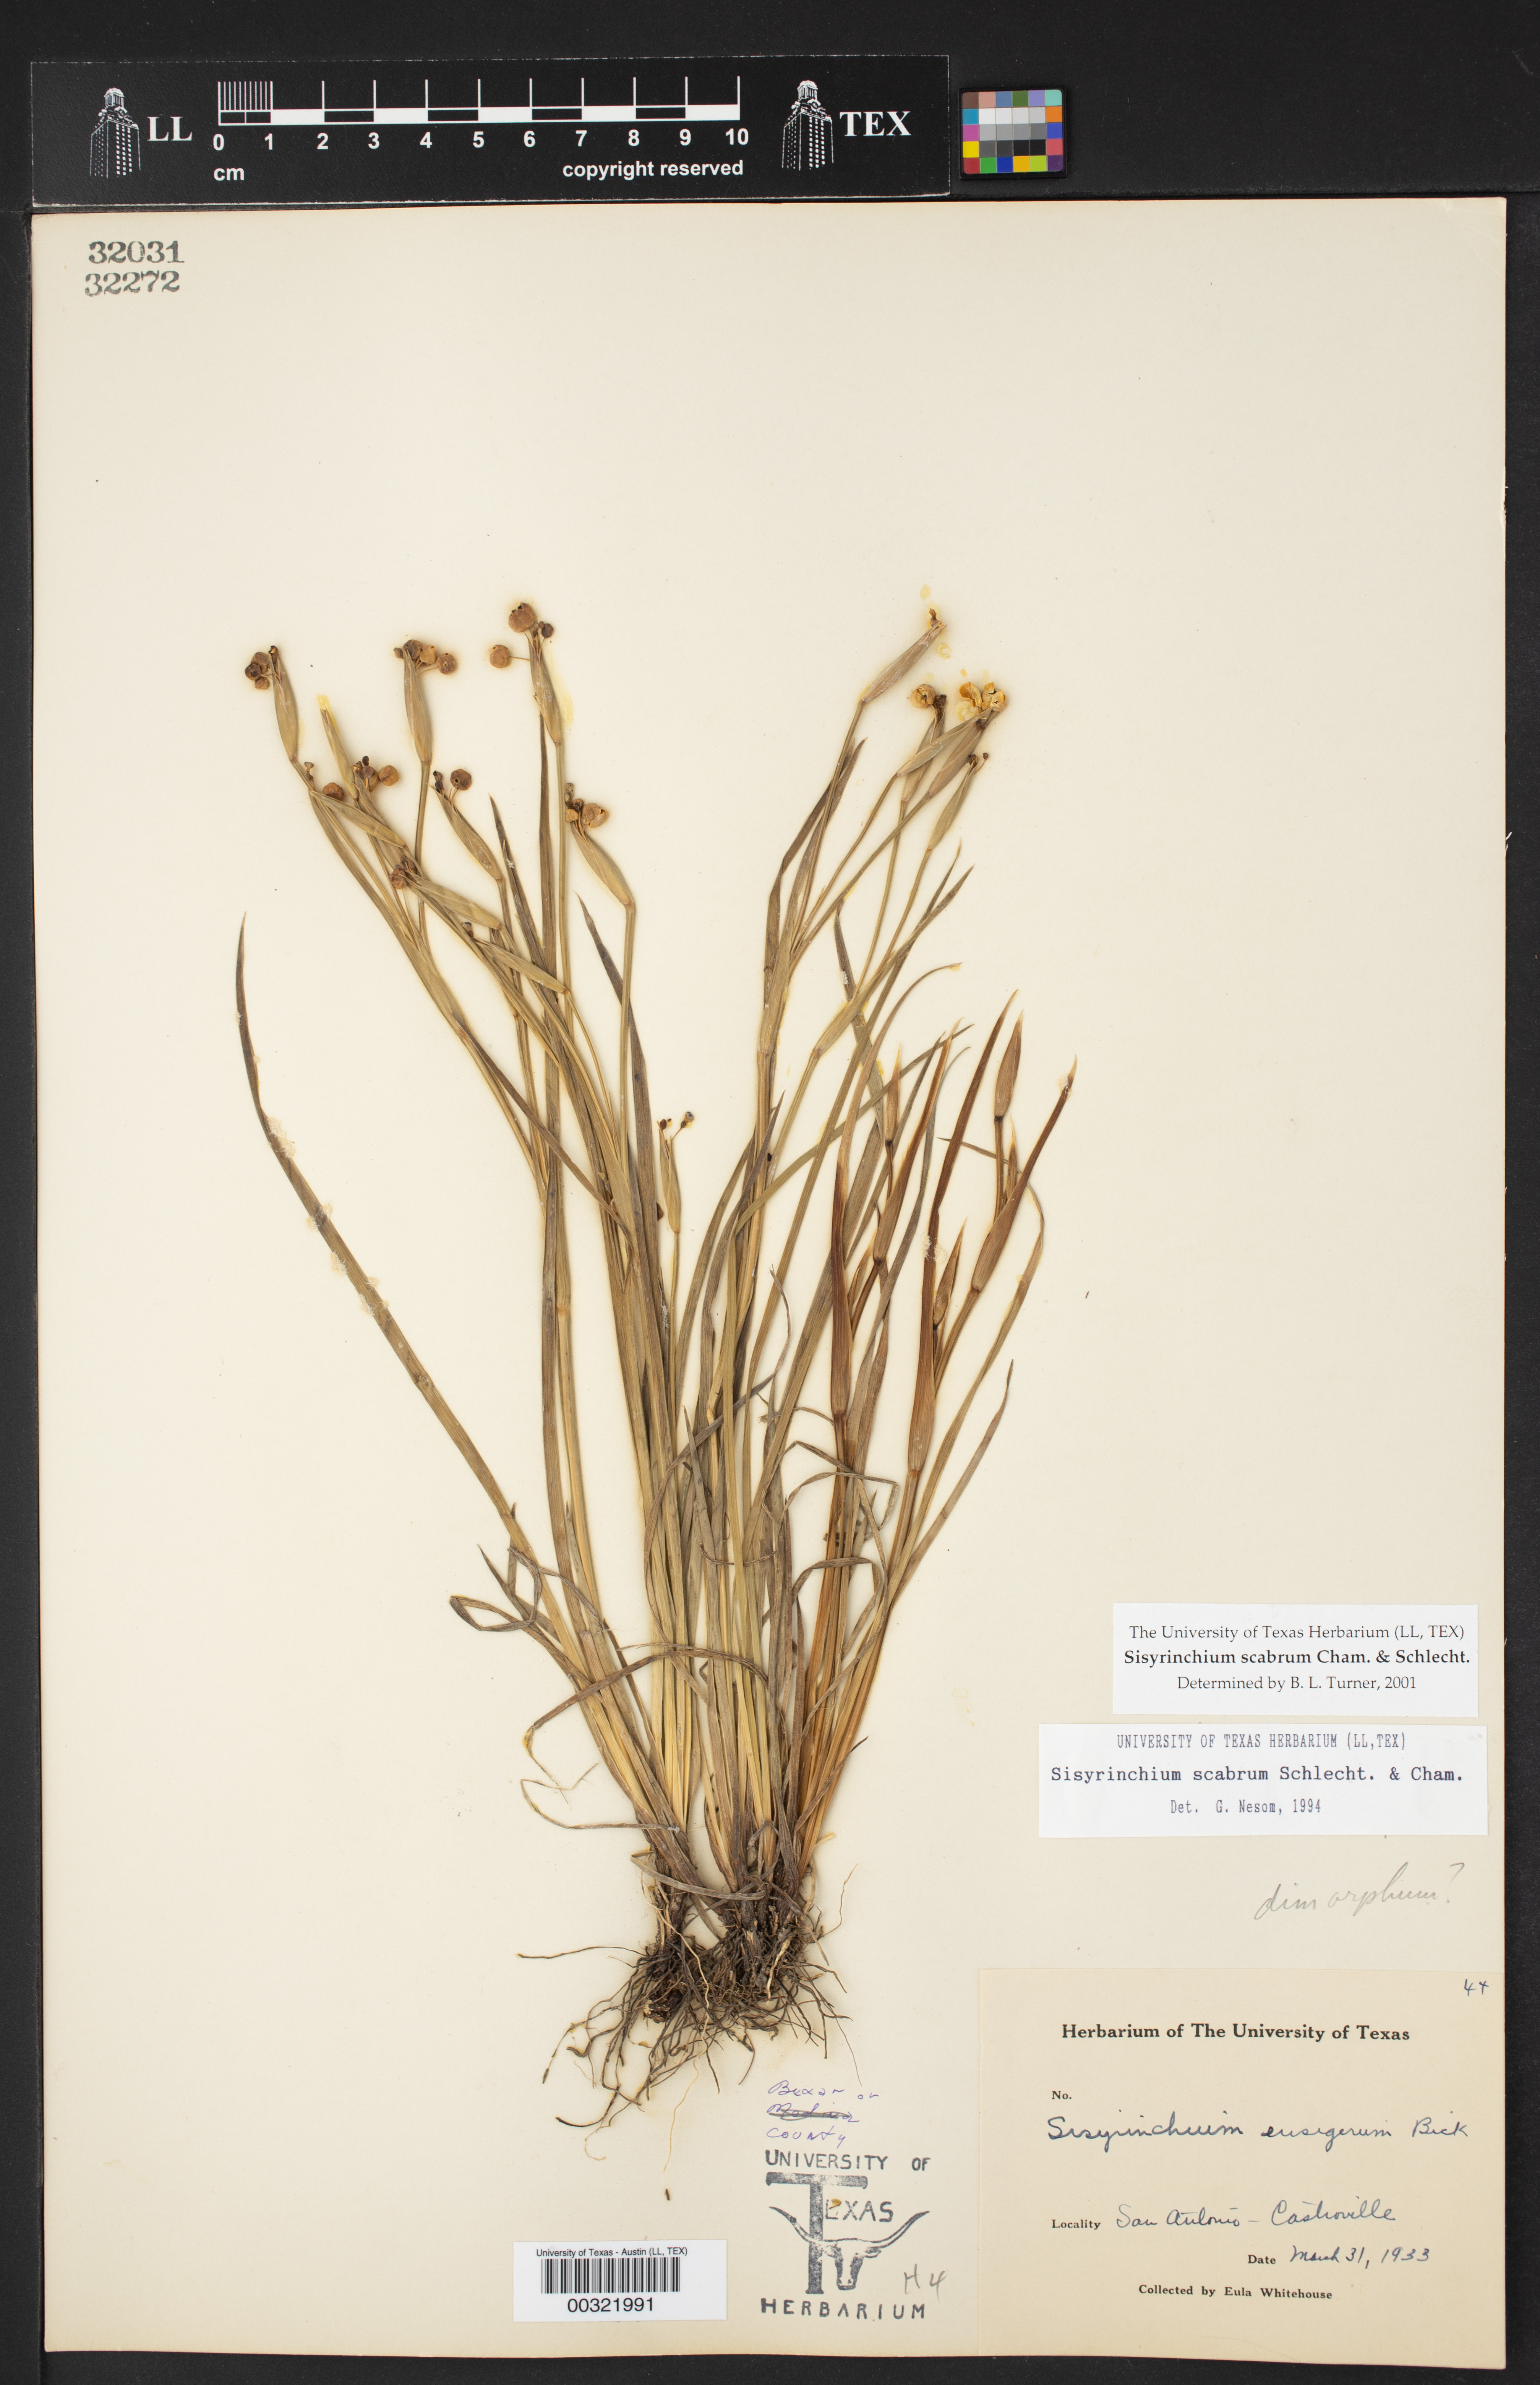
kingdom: Plantae
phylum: Tracheophyta
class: Liliopsida
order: Asparagales
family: Iridaceae
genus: Sisyrinchium
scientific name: Sisyrinchium scabrum
